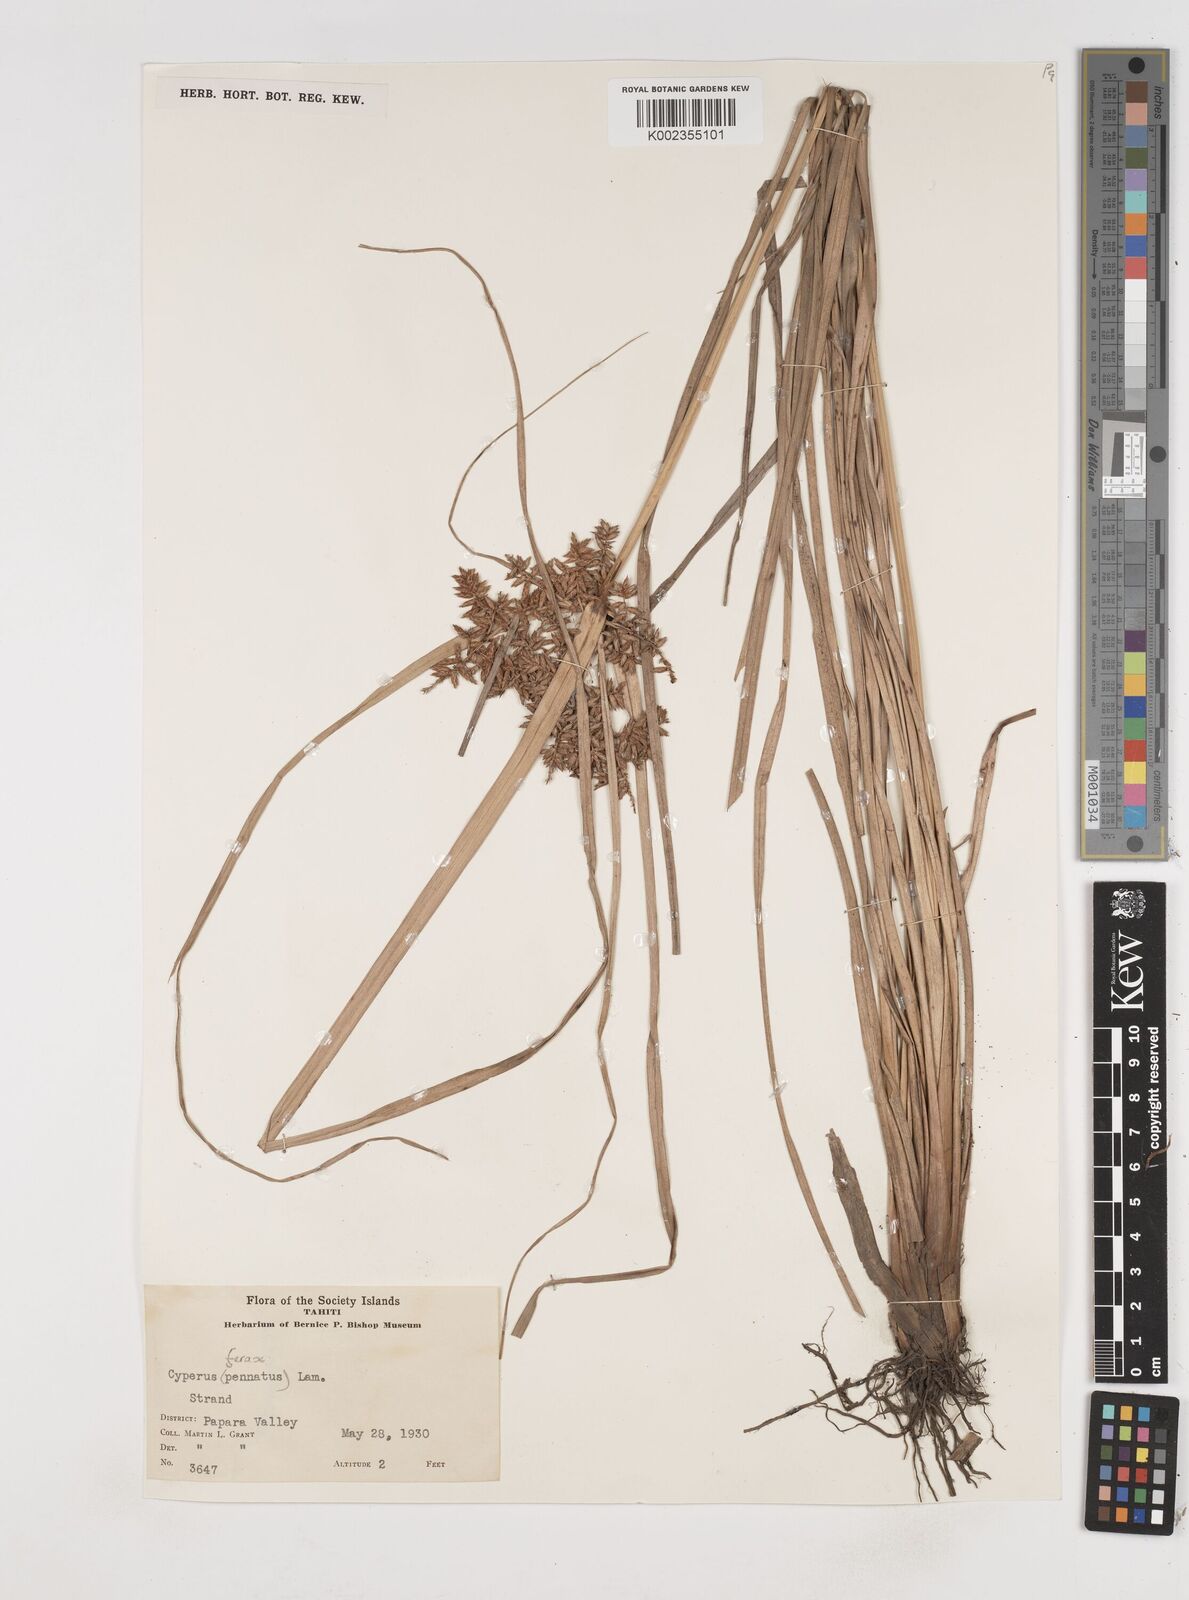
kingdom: Plantae
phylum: Tracheophyta
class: Liliopsida
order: Poales
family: Cyperaceae
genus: Cyperus
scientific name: Cyperus javanicus
